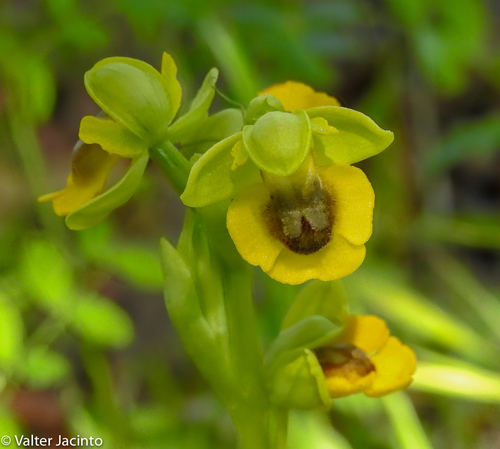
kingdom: Plantae
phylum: Tracheophyta
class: Liliopsida
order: Asparagales
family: Orchidaceae
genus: Ophrys
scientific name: Ophrys lutea
